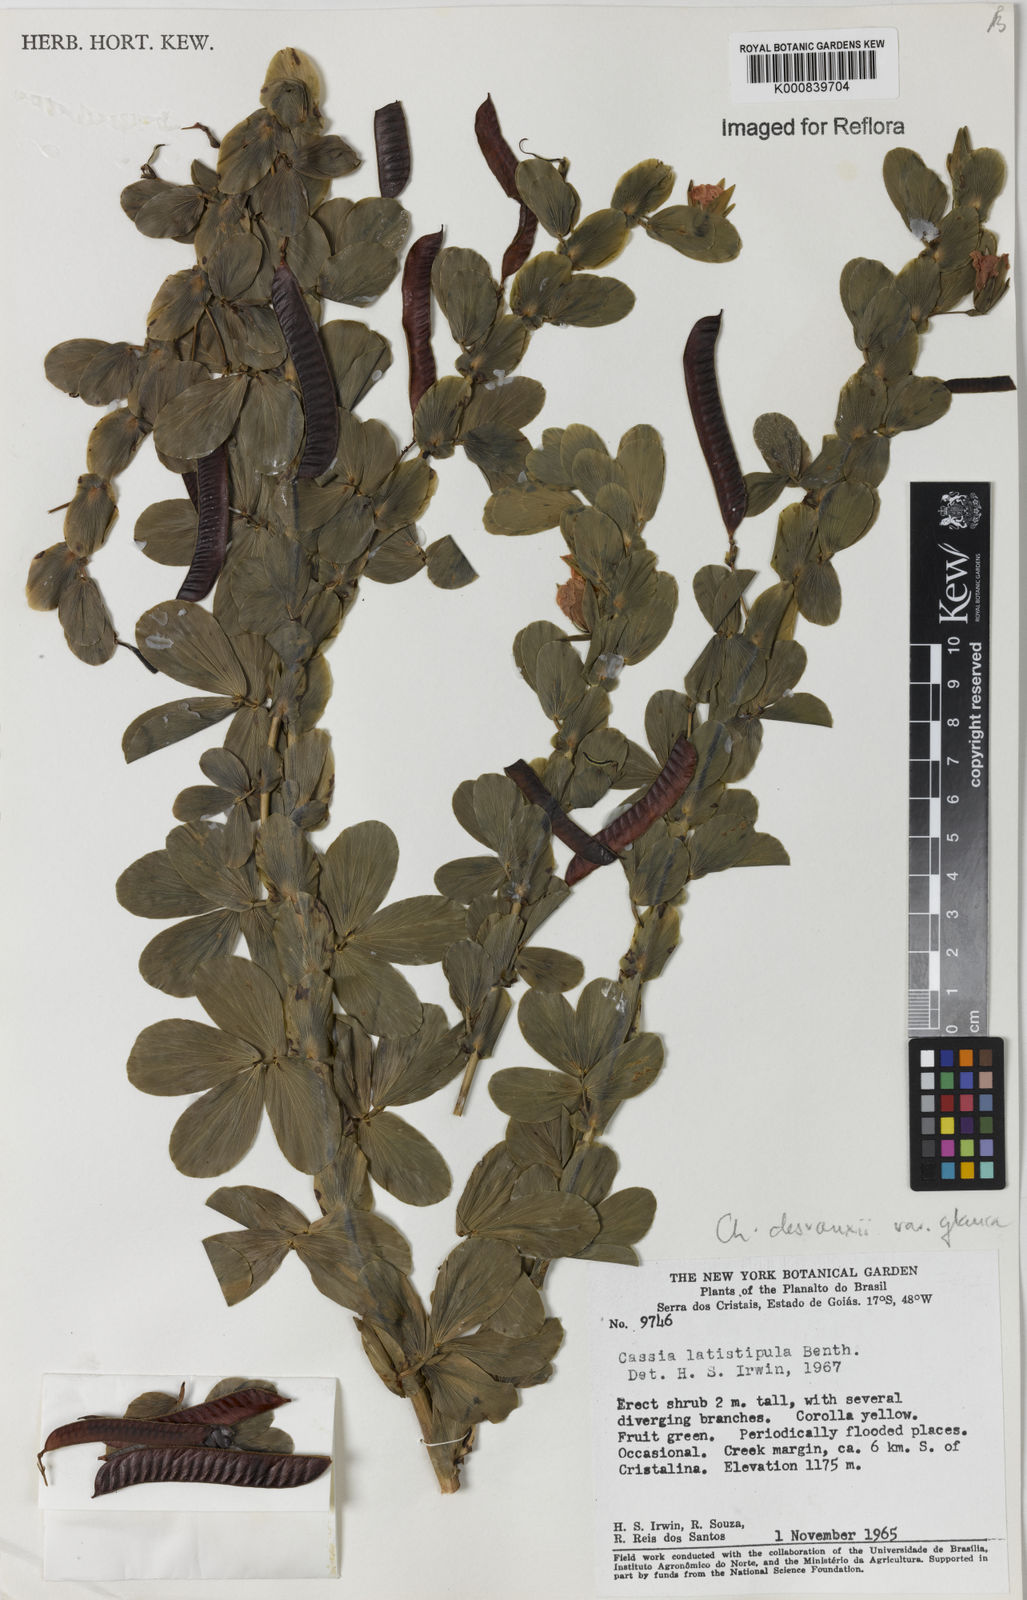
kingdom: Plantae
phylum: Tracheophyta
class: Magnoliopsida
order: Fabales
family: Fabaceae
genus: Chamaecrista
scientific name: Chamaecrista desvauxii
